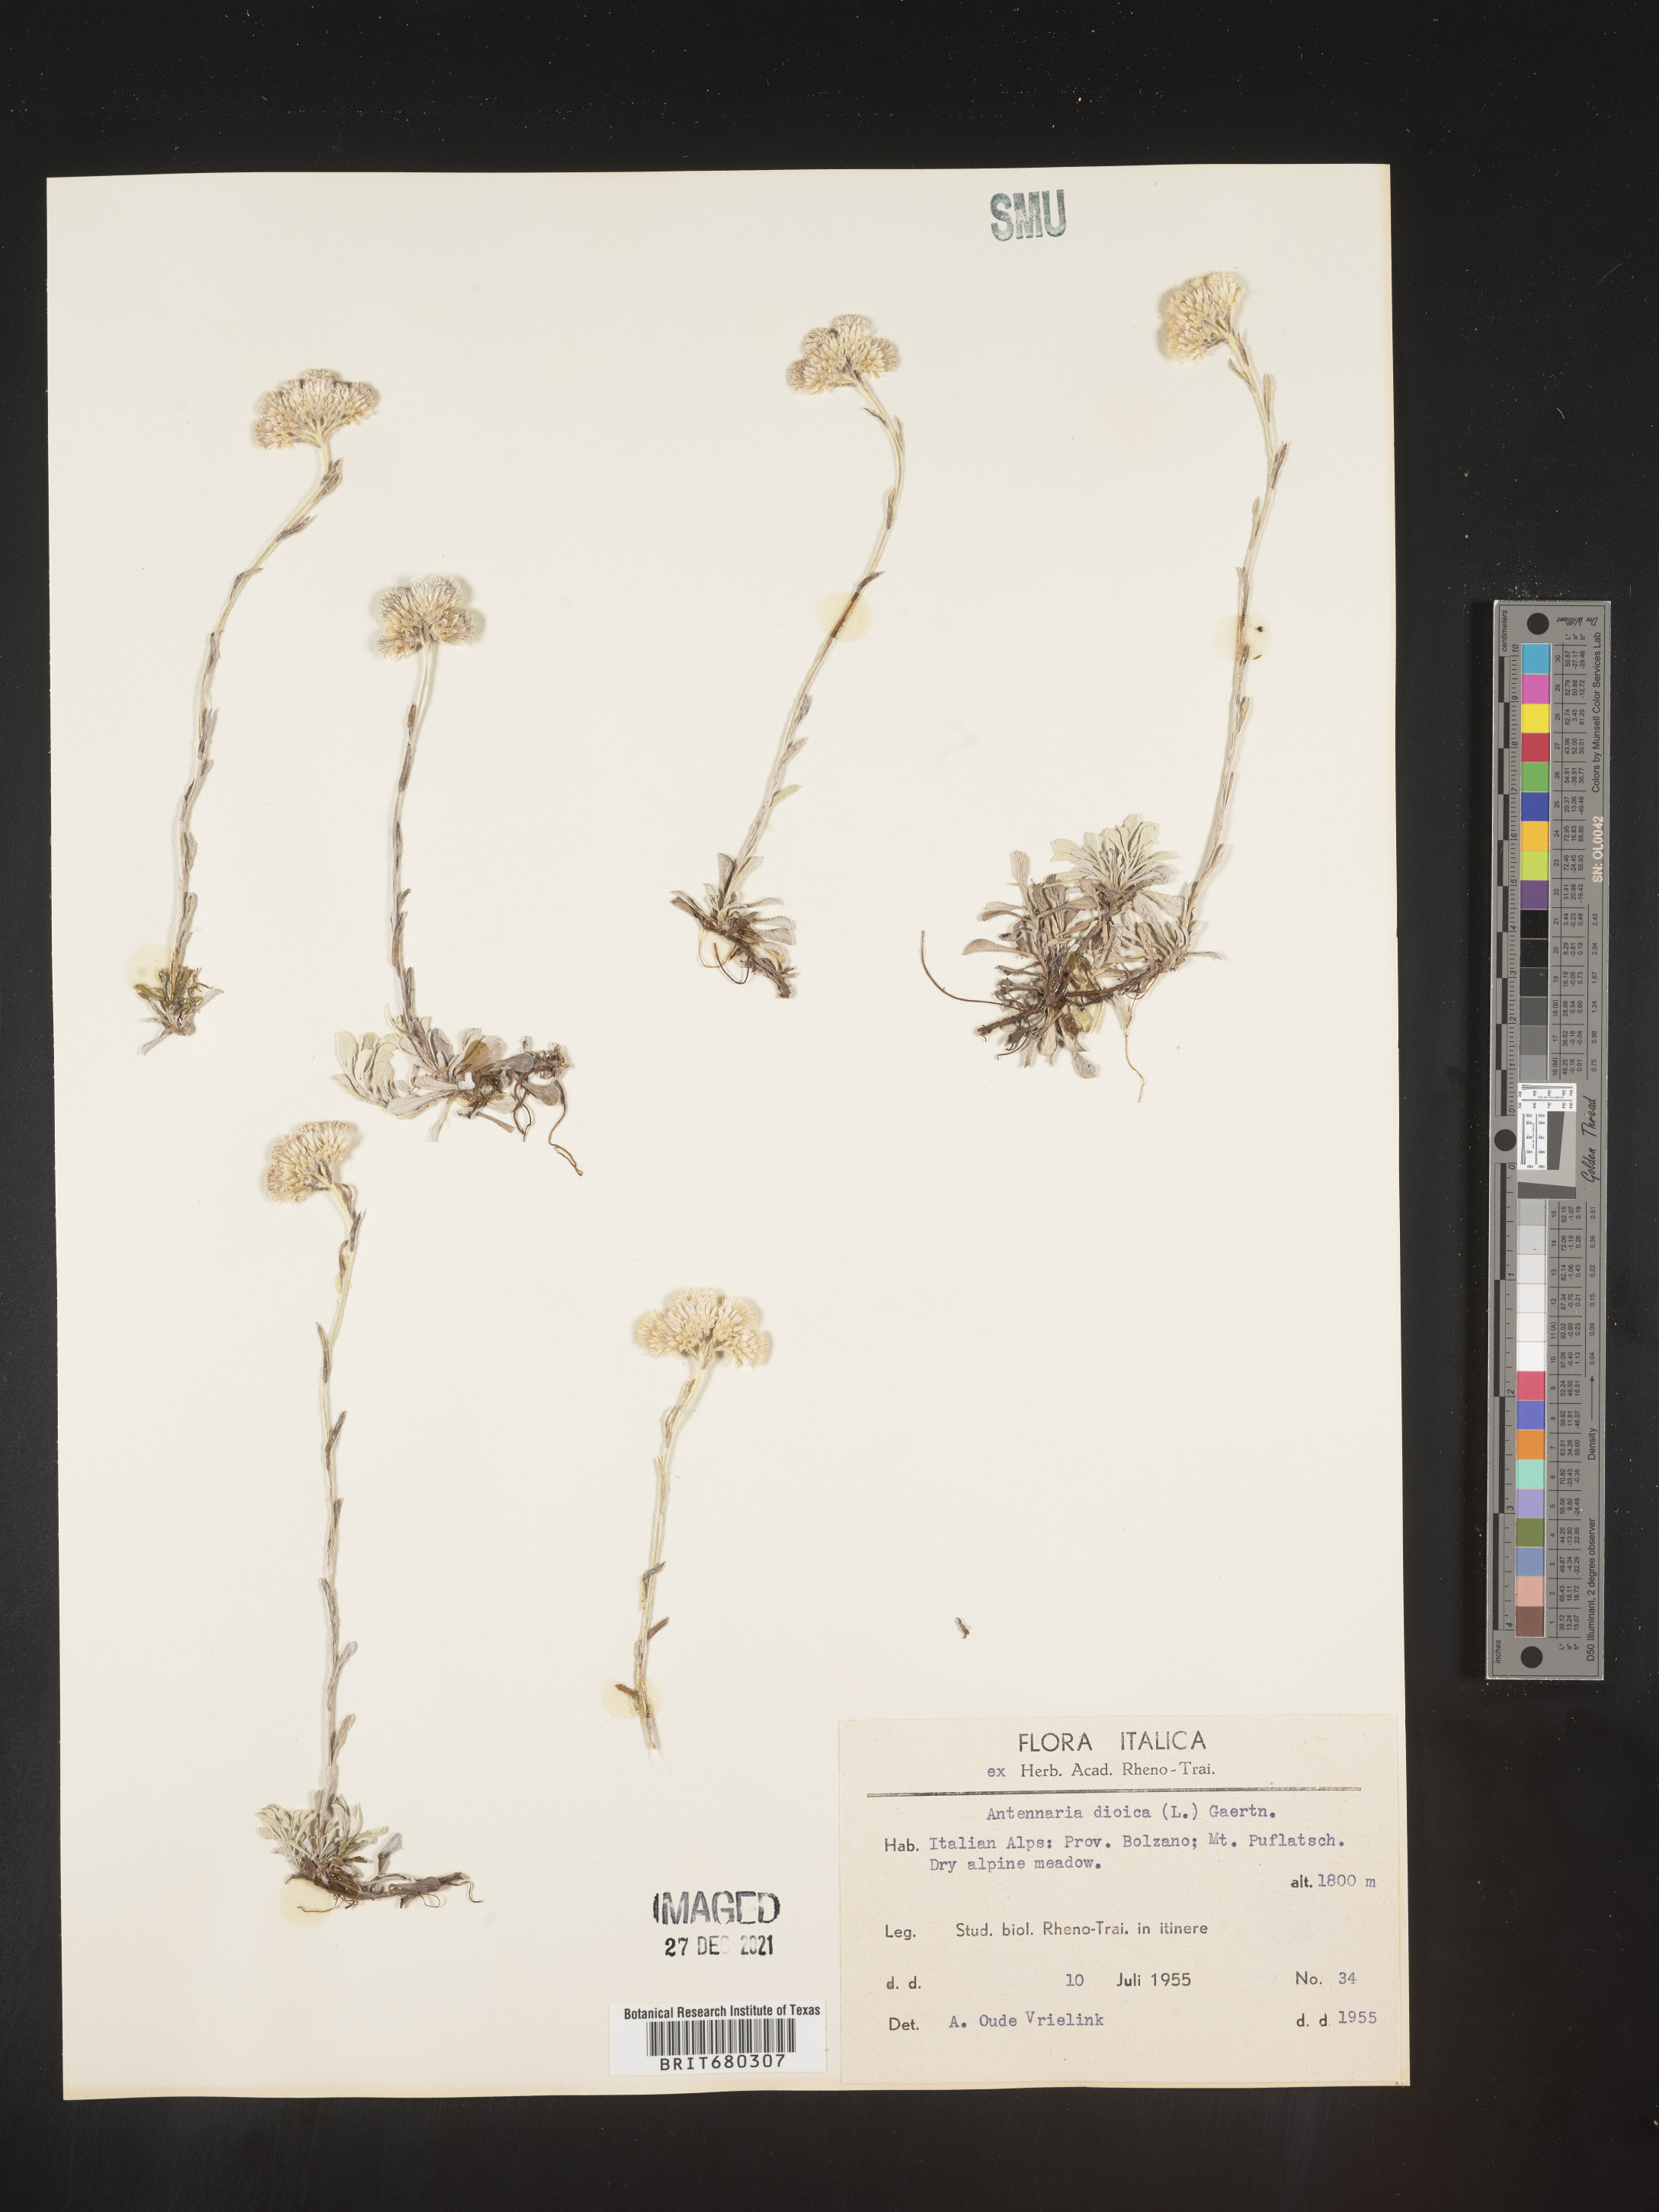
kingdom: Plantae
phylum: Tracheophyta
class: Magnoliopsida
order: Asterales
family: Asteraceae
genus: Antennaria
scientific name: Antennaria dioica
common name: Mountain everlasting
